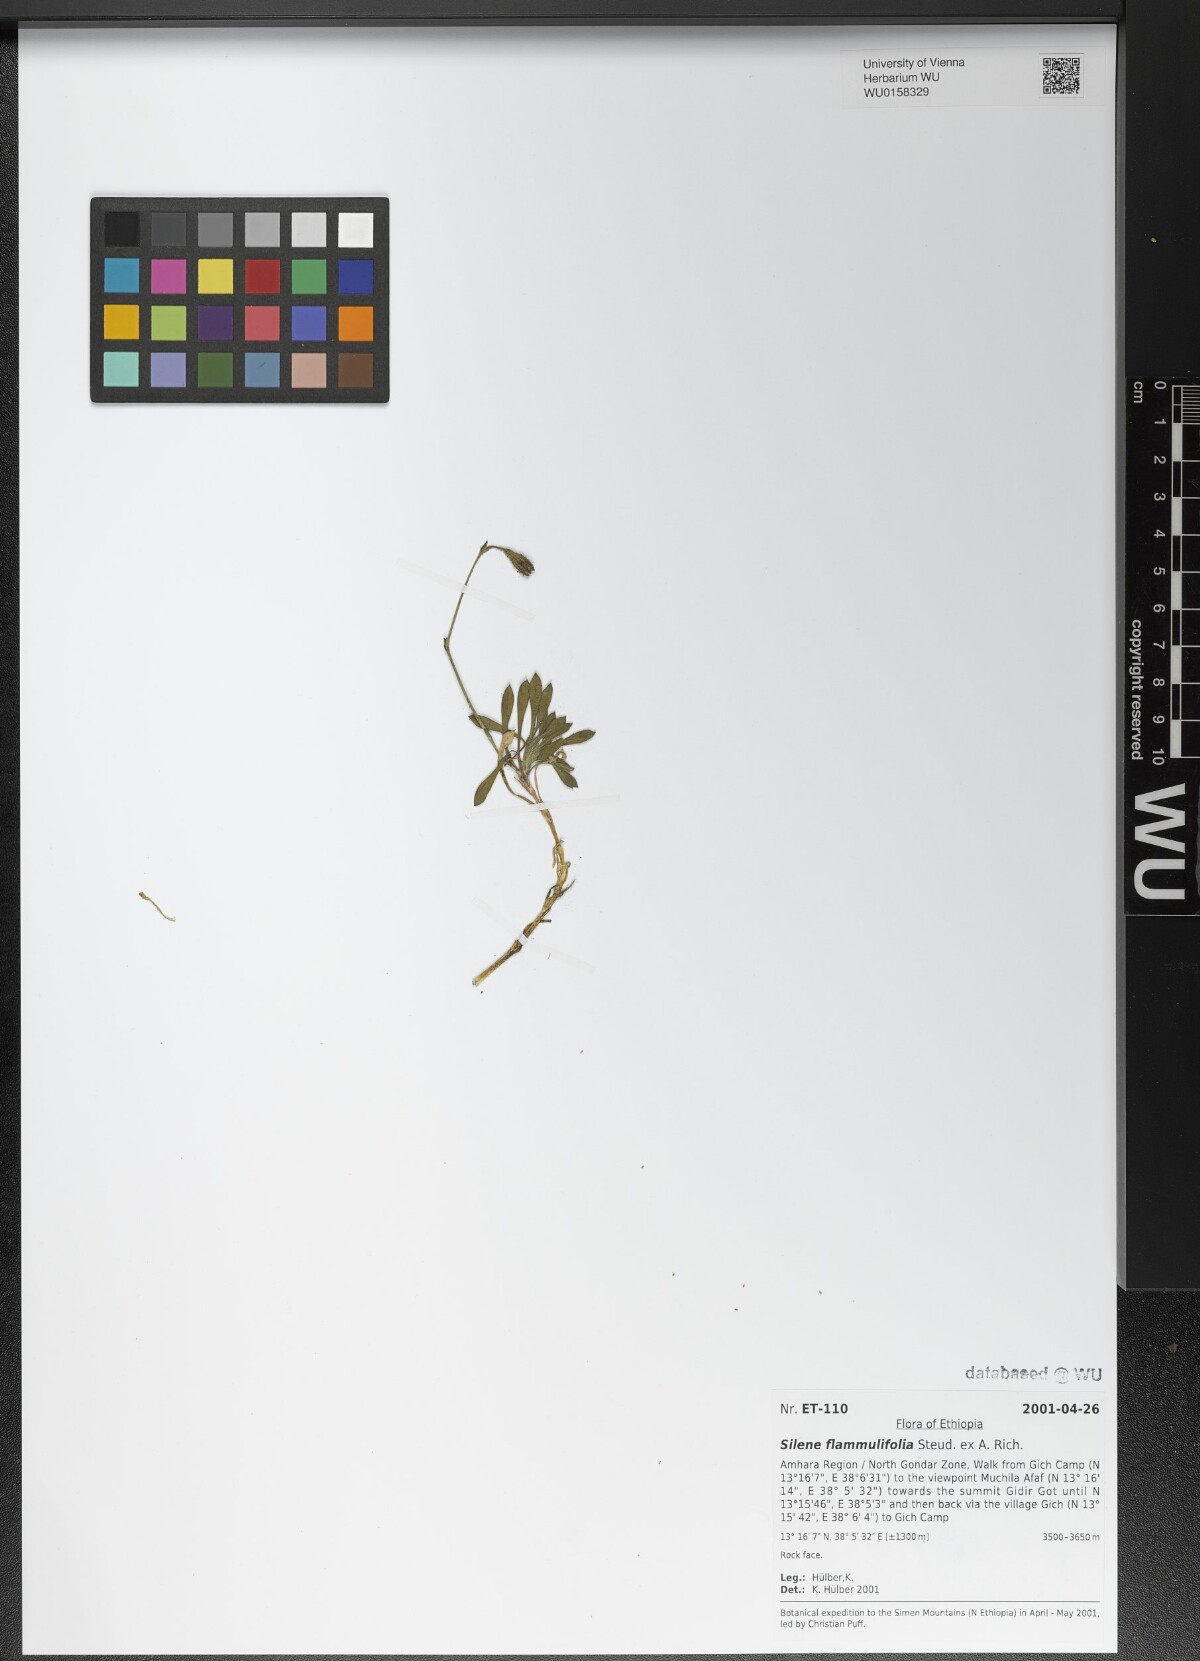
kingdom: Plantae
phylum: Tracheophyta
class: Magnoliopsida
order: Caryophyllales
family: Caryophyllaceae
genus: Silene
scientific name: Silene flammulifolia
